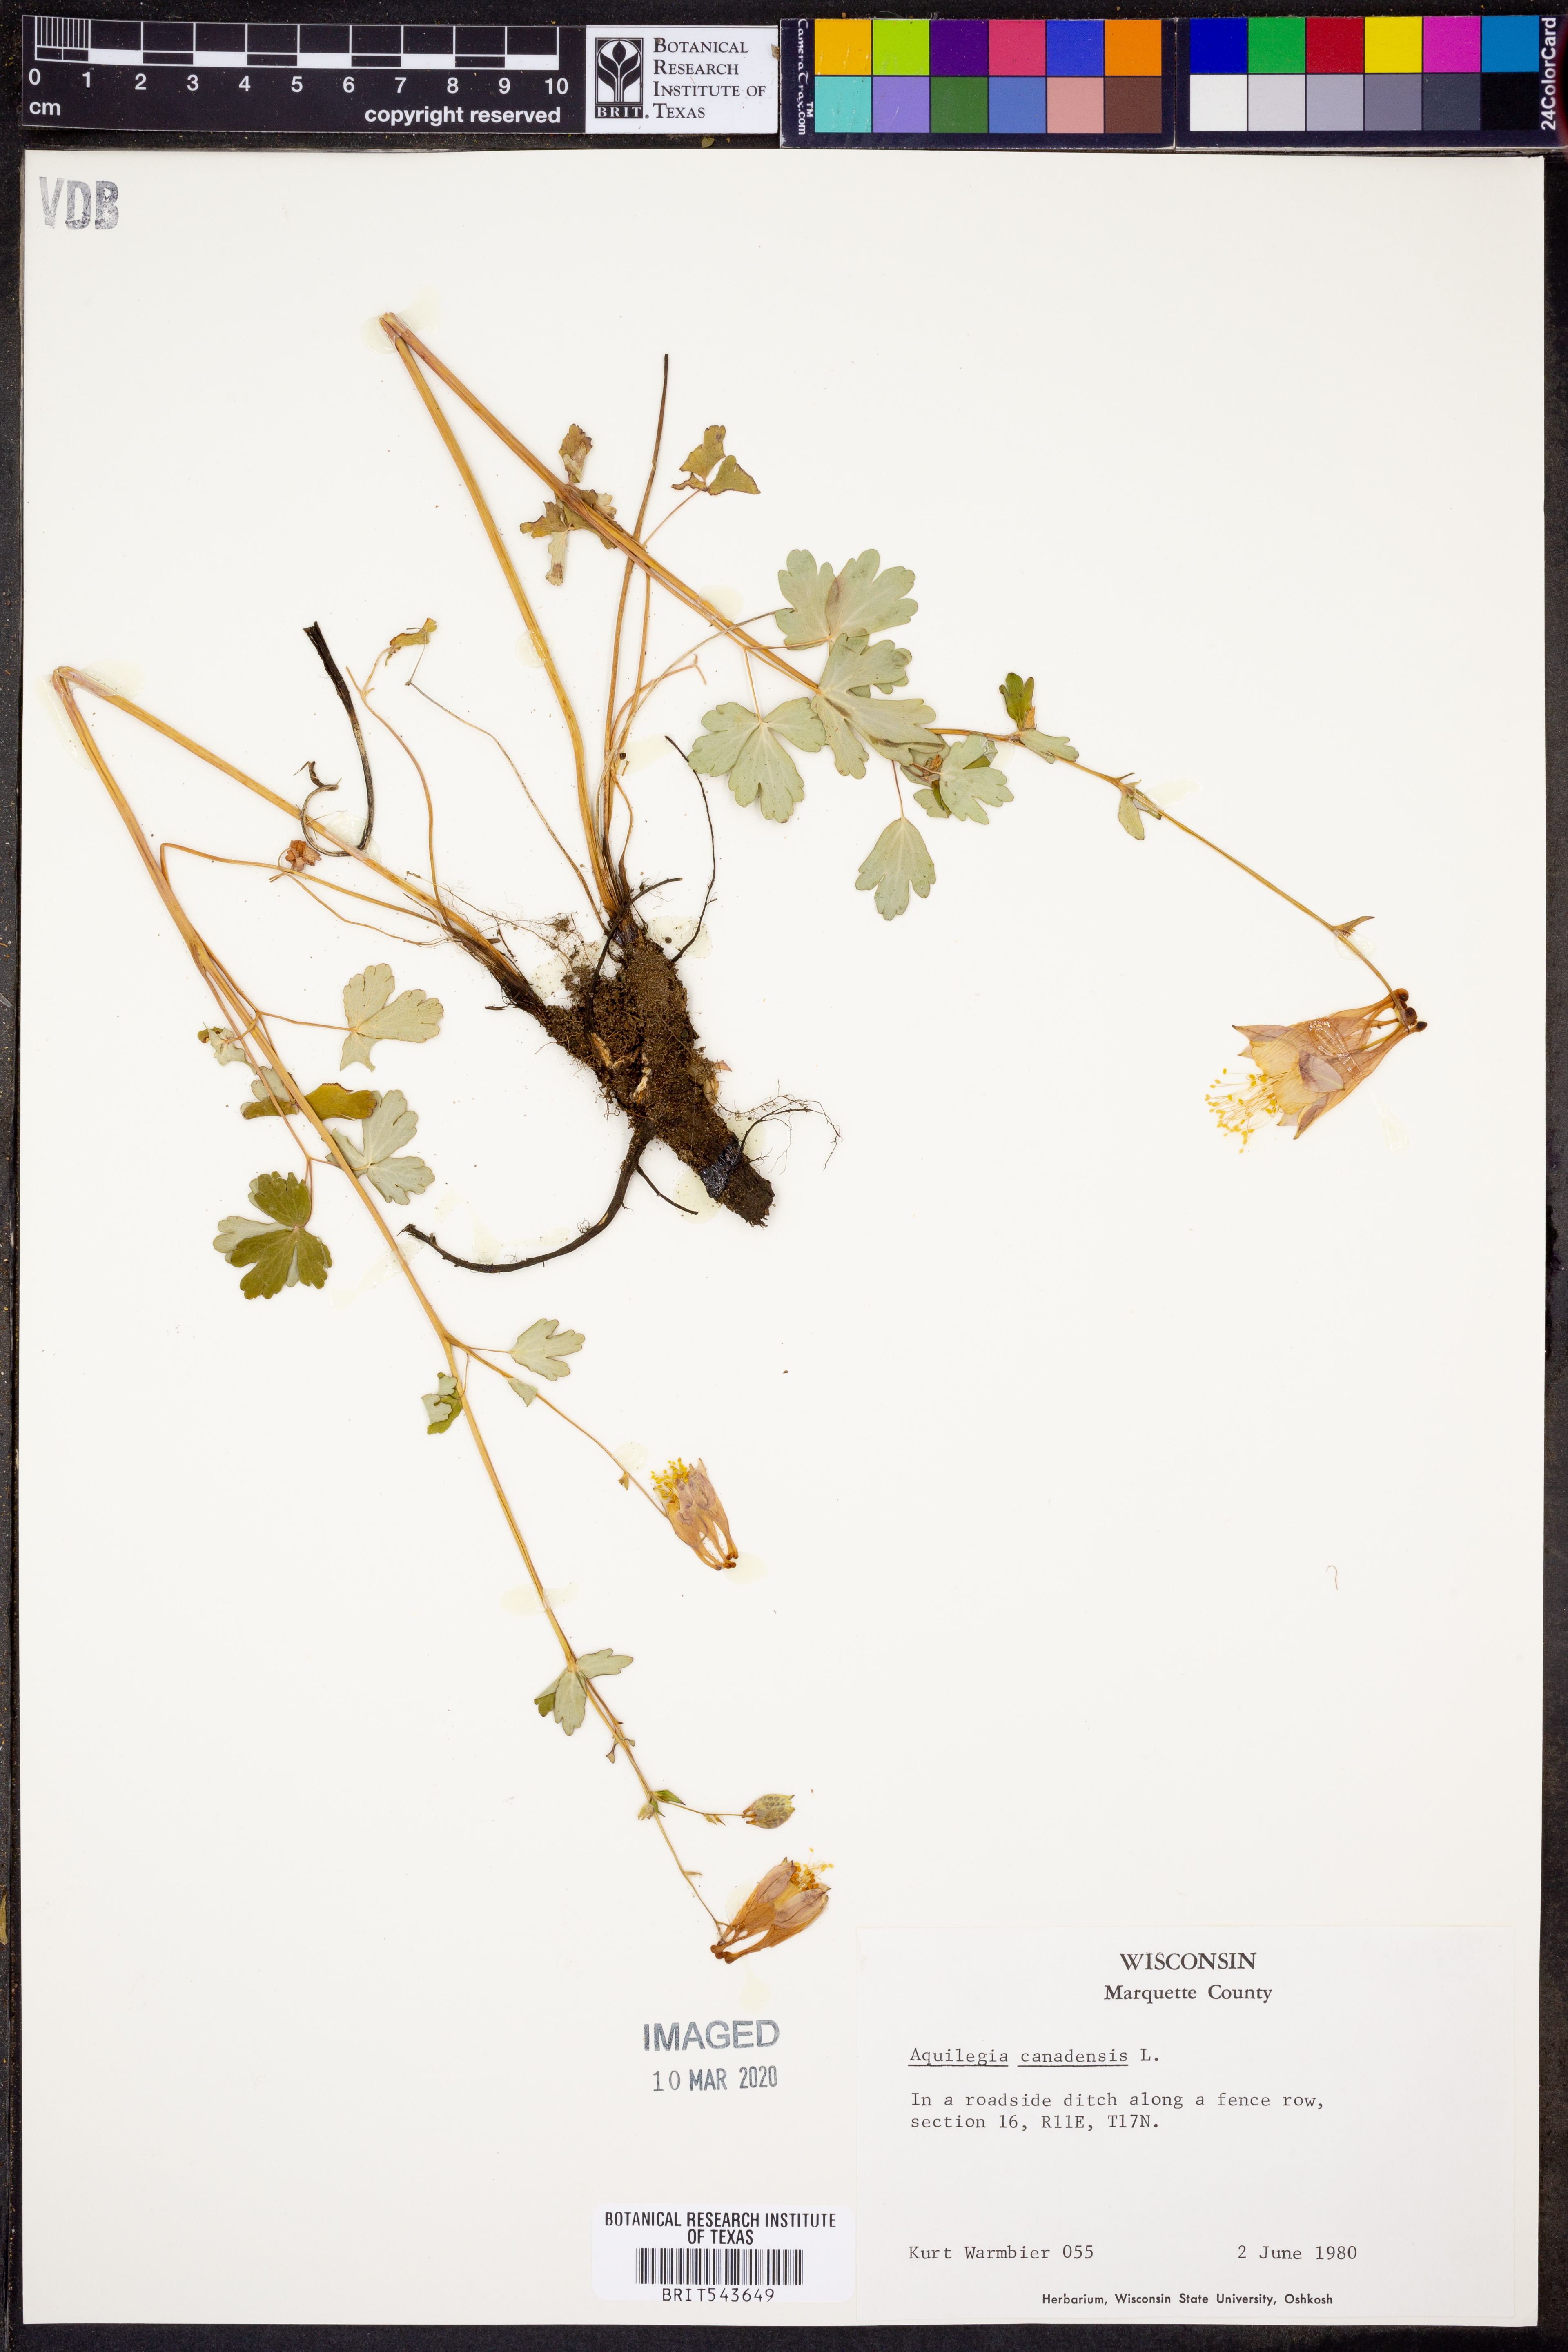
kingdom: Plantae
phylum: Tracheophyta
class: Magnoliopsida
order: Ranunculales
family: Ranunculaceae
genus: Aquilegia
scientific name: Aquilegia canadensis
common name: American columbine
